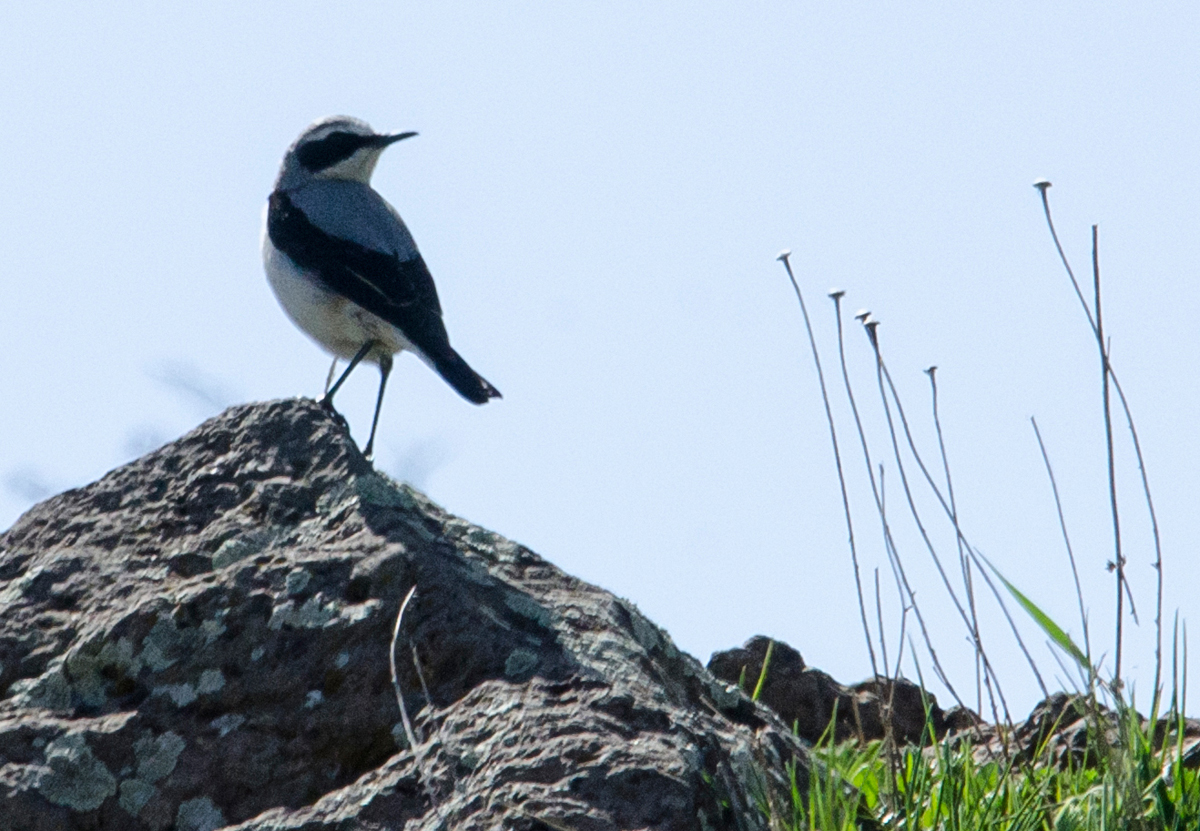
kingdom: Animalia
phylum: Chordata
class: Aves
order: Passeriformes
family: Muscicapidae
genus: Oenanthe
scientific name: Oenanthe oenanthe
